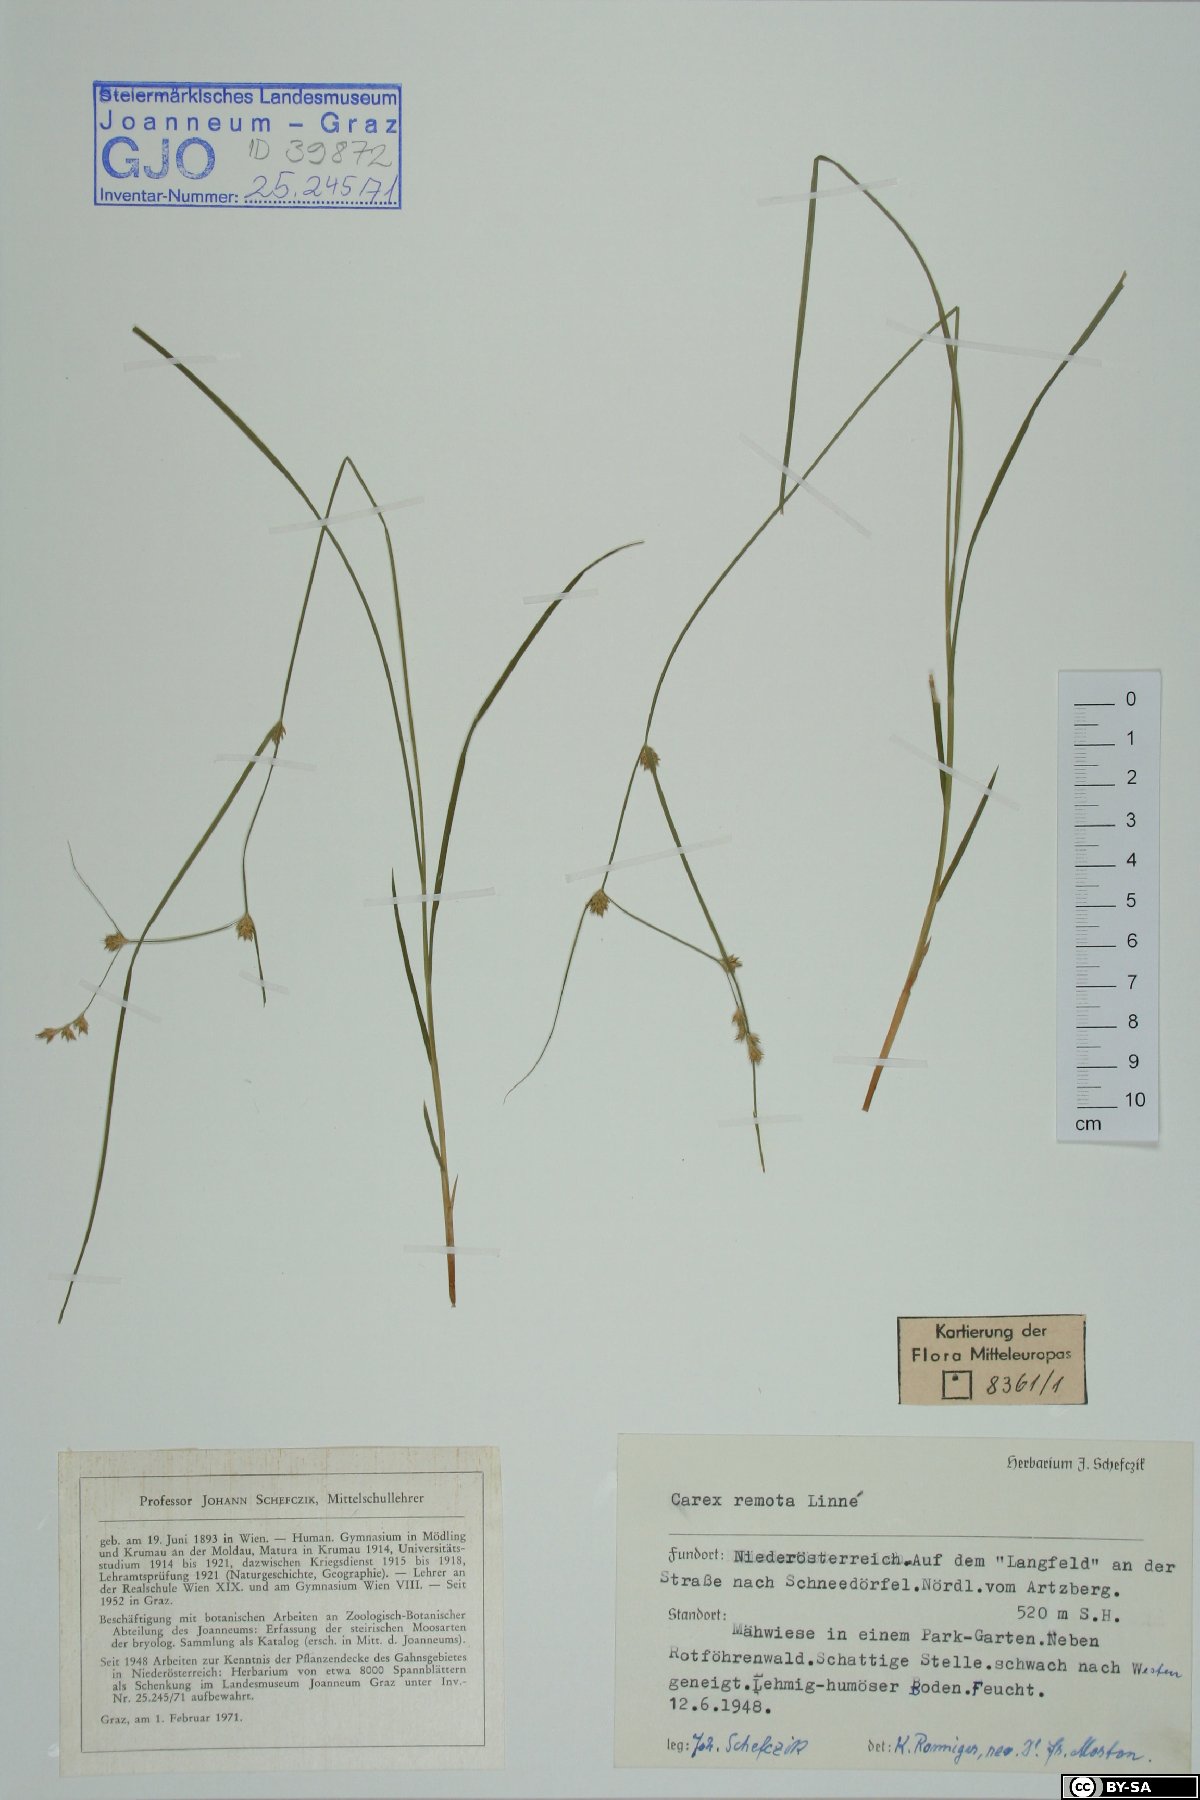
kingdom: Plantae
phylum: Tracheophyta
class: Liliopsida
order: Poales
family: Cyperaceae
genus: Carex
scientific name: Carex remota
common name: Remote sedge
